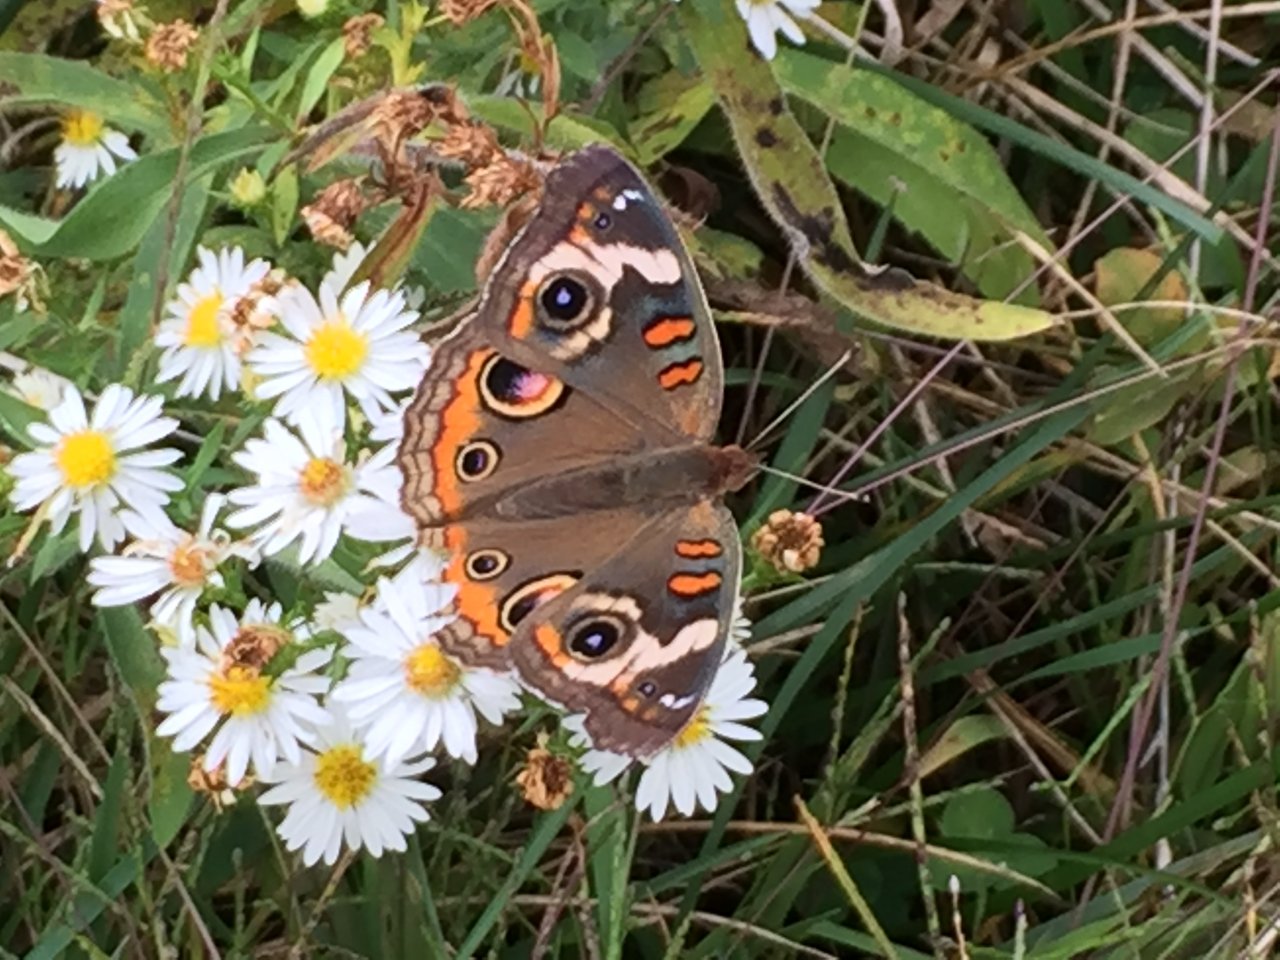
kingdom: Animalia
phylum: Arthropoda
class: Insecta
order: Lepidoptera
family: Nymphalidae
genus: Junonia
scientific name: Junonia coenia
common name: Common Buckeye
